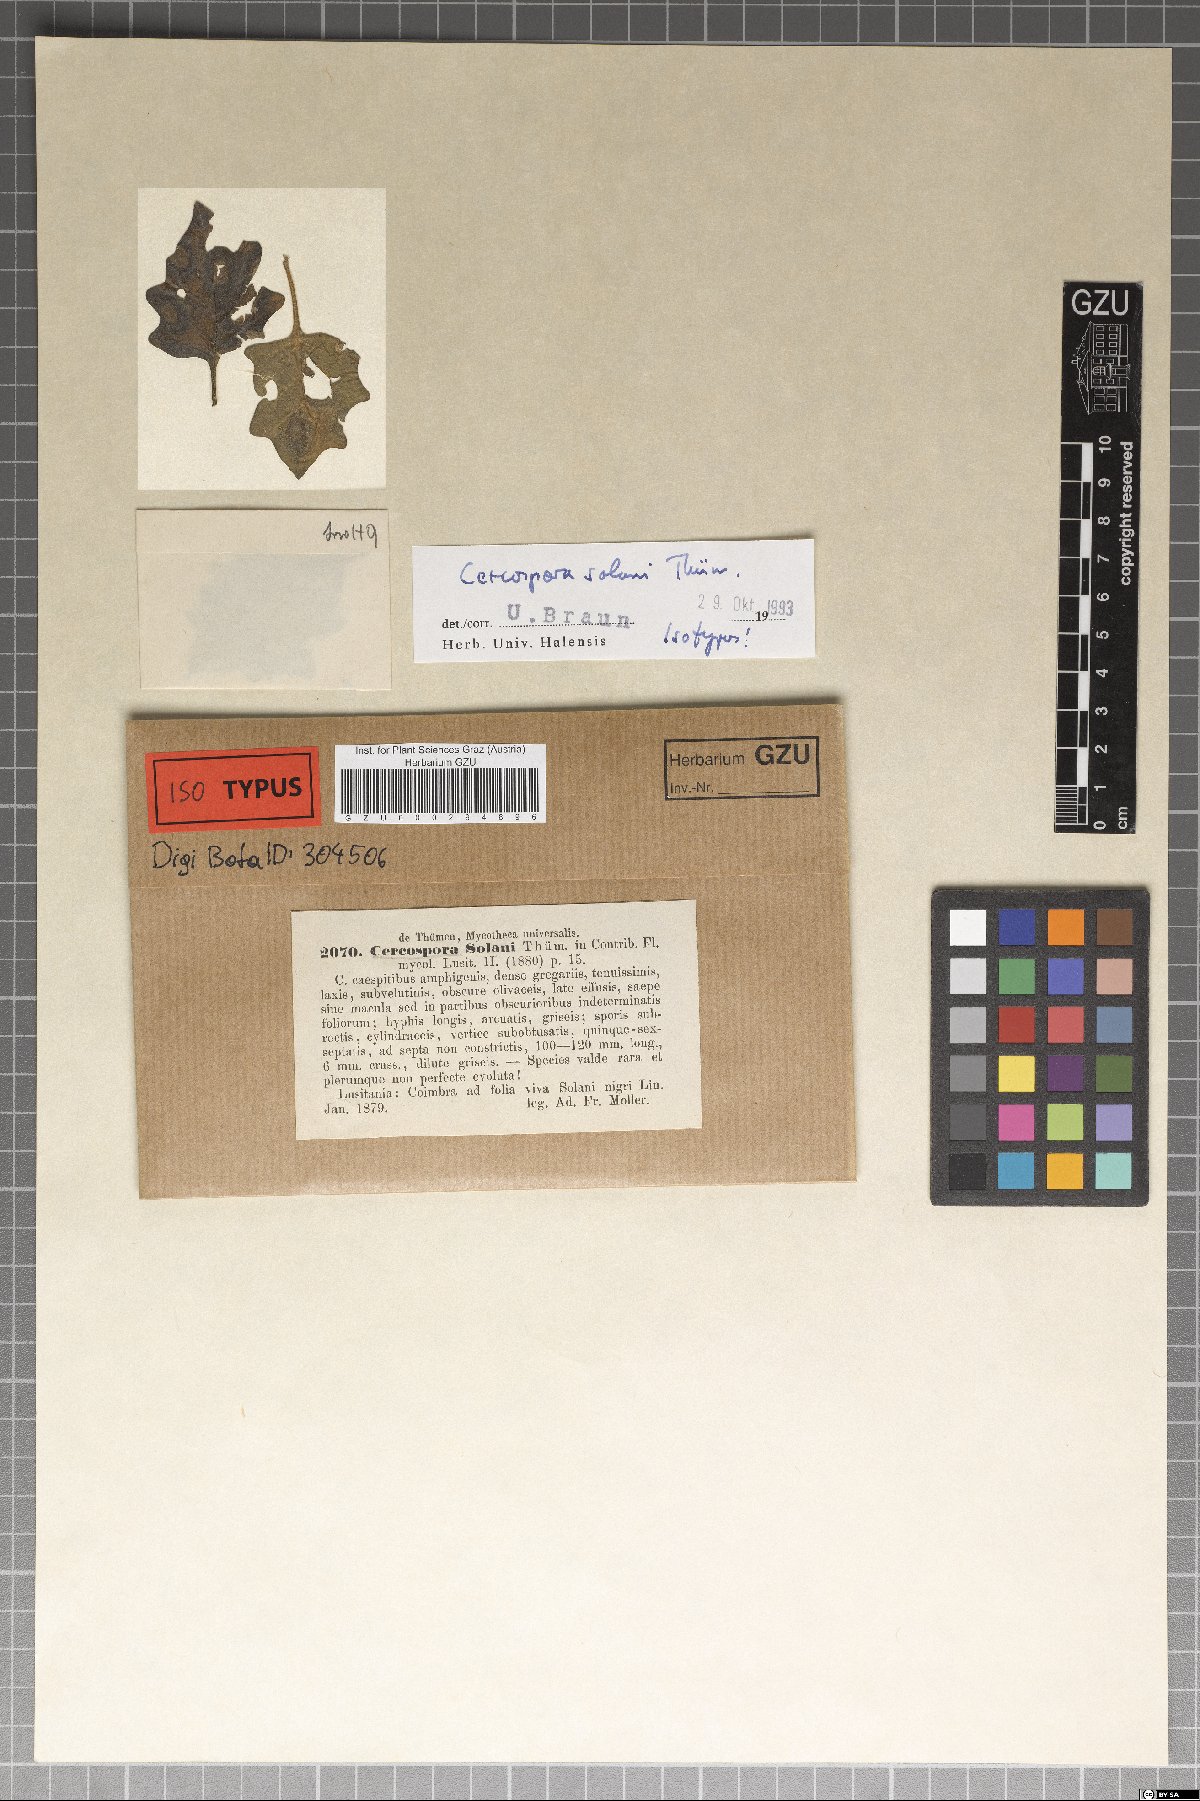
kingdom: Fungi
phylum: Ascomycota
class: Dothideomycetes
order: Mycosphaerellales
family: Mycosphaerellaceae
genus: Cercospora
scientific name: Cercospora solani
